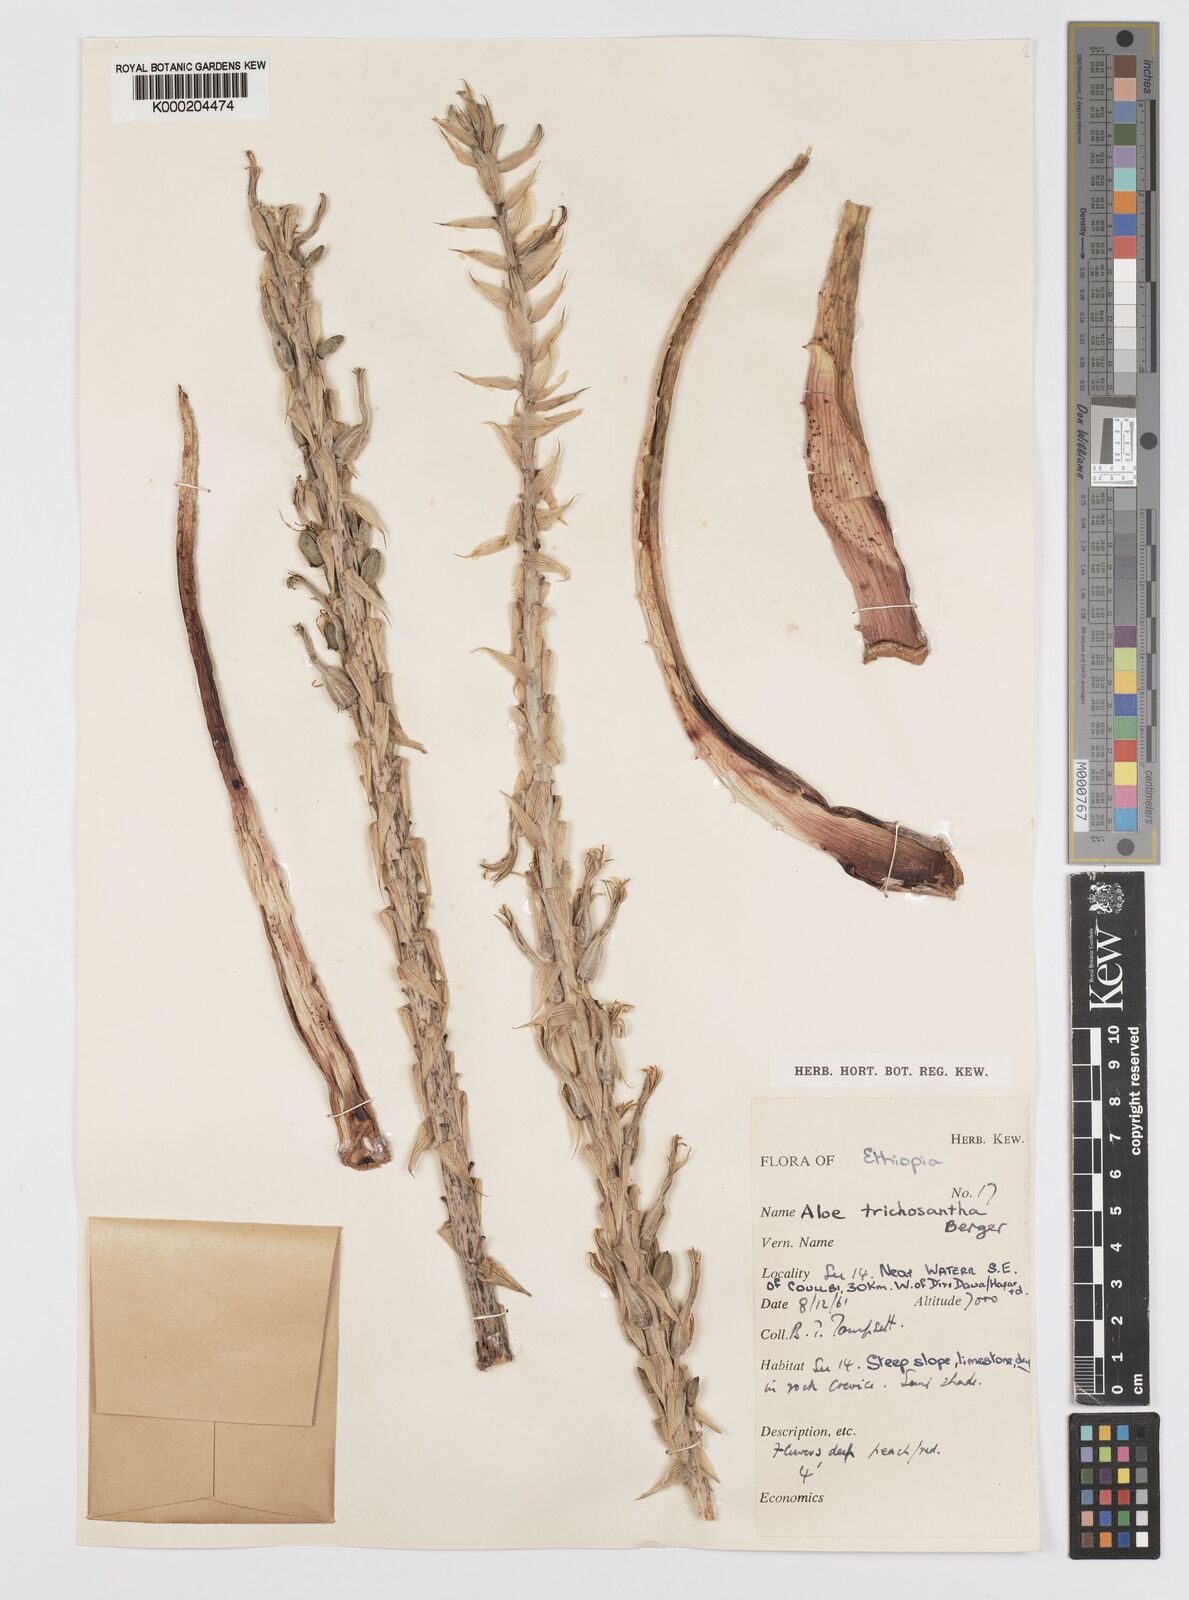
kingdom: Plantae
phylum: Tracheophyta
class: Liliopsida
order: Asparagales
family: Asphodelaceae
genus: Aloe
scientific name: Aloe trichosantha
